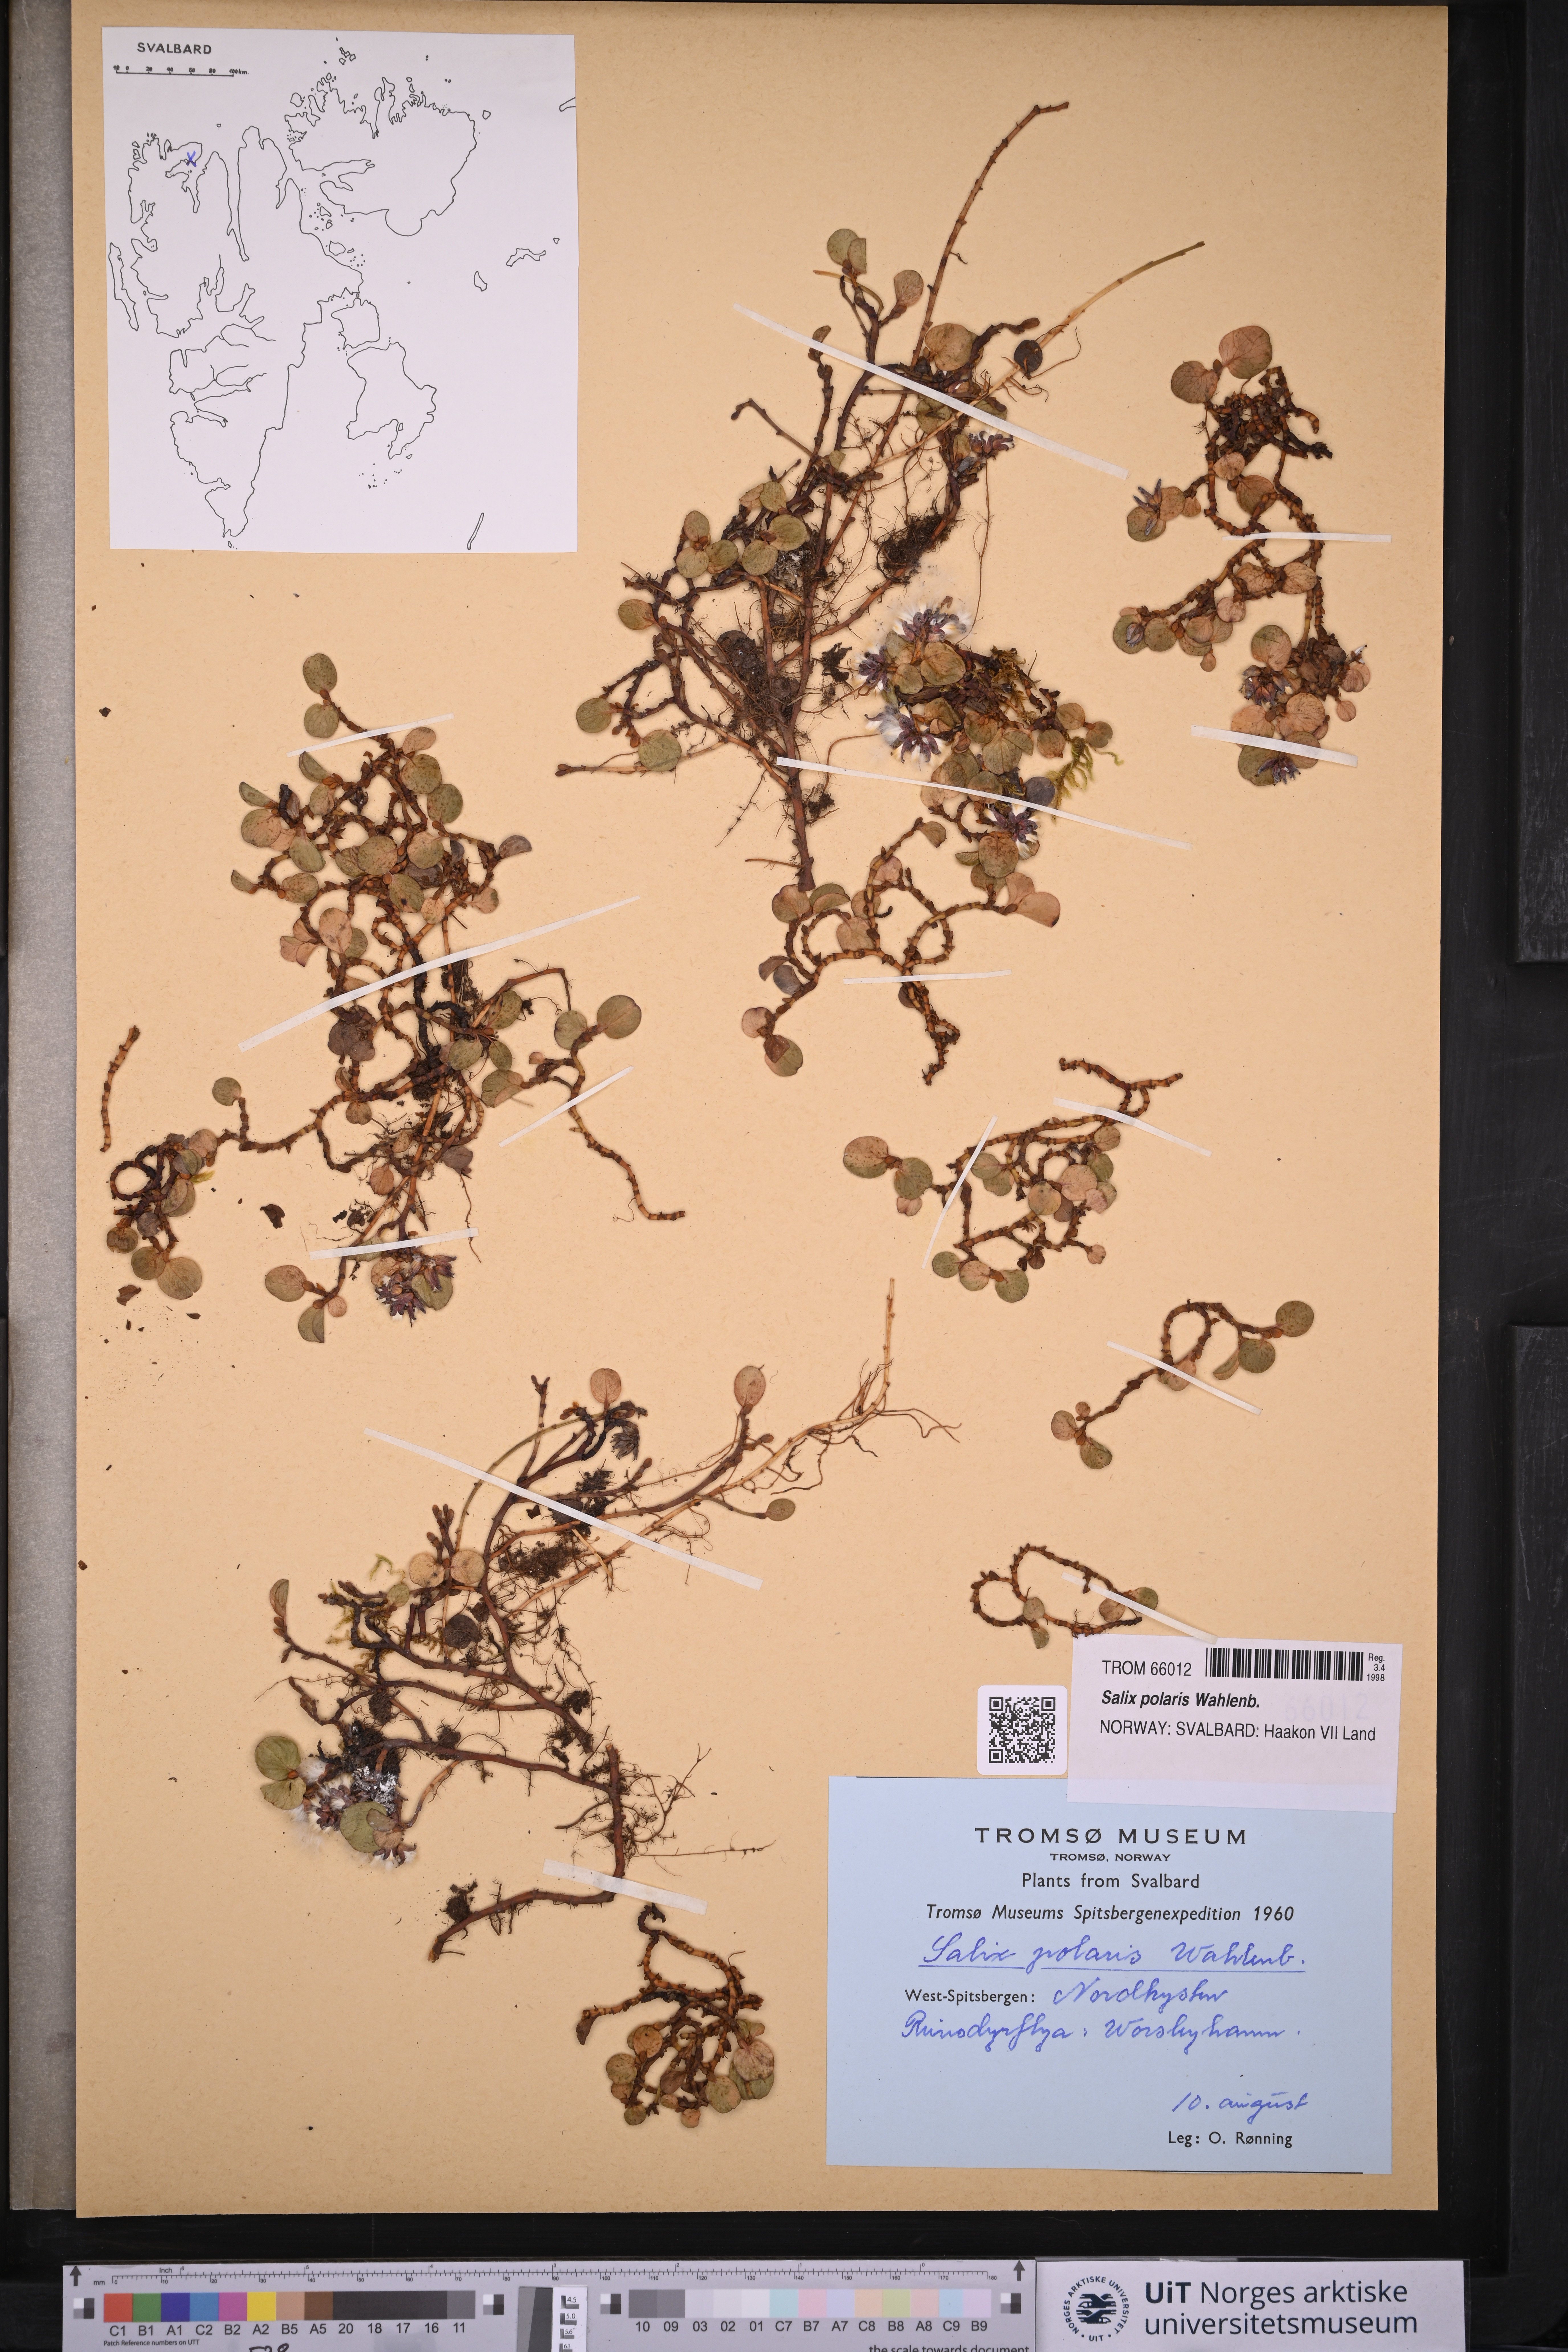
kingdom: Plantae
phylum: Tracheophyta
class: Magnoliopsida
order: Malpighiales
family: Salicaceae
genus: Salix
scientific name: Salix polaris
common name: Polar willow
